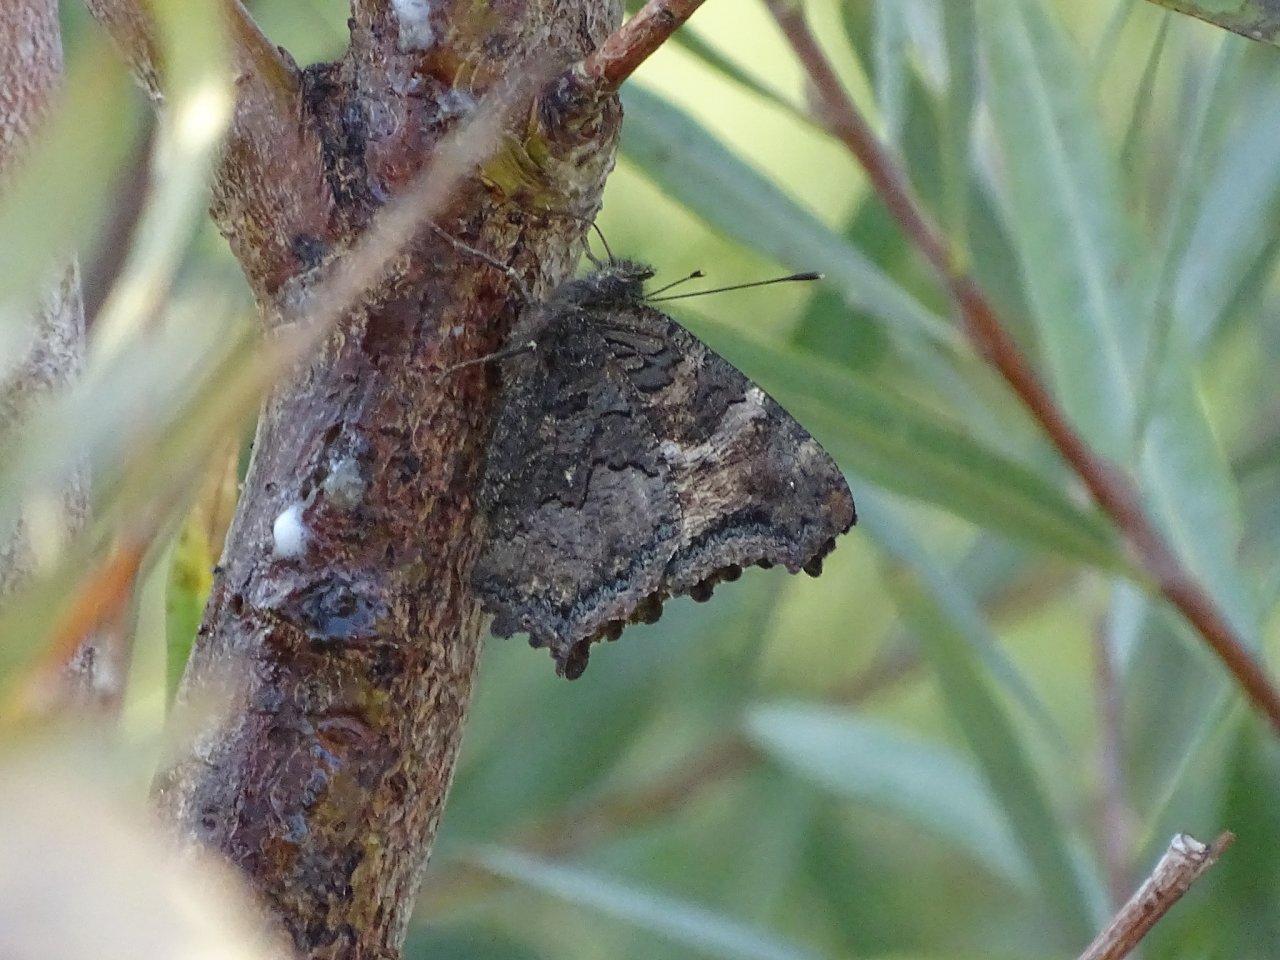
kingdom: Animalia
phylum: Arthropoda
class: Insecta
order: Lepidoptera
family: Nymphalidae
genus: Nymphalis
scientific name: Nymphalis californica
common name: California Tortoiseshell
